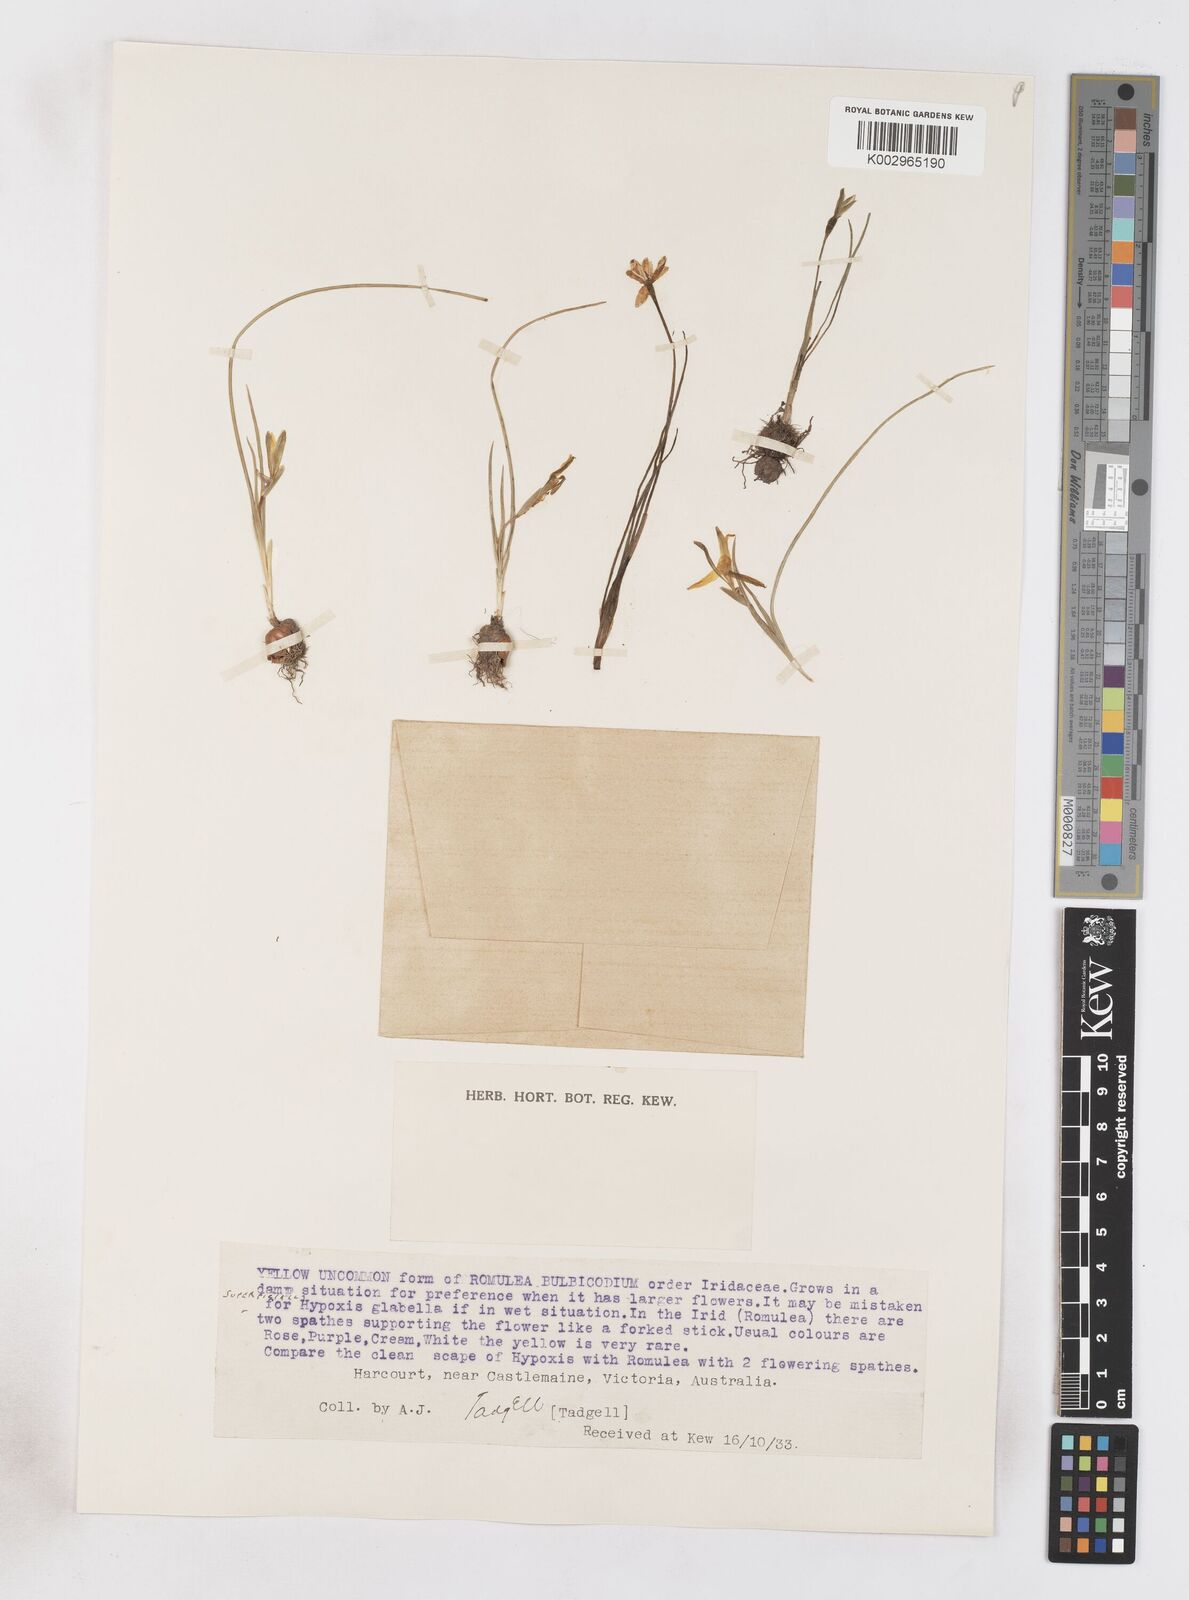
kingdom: Plantae
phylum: Tracheophyta
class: Liliopsida
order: Asparagales
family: Iridaceae
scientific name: Iridaceae
